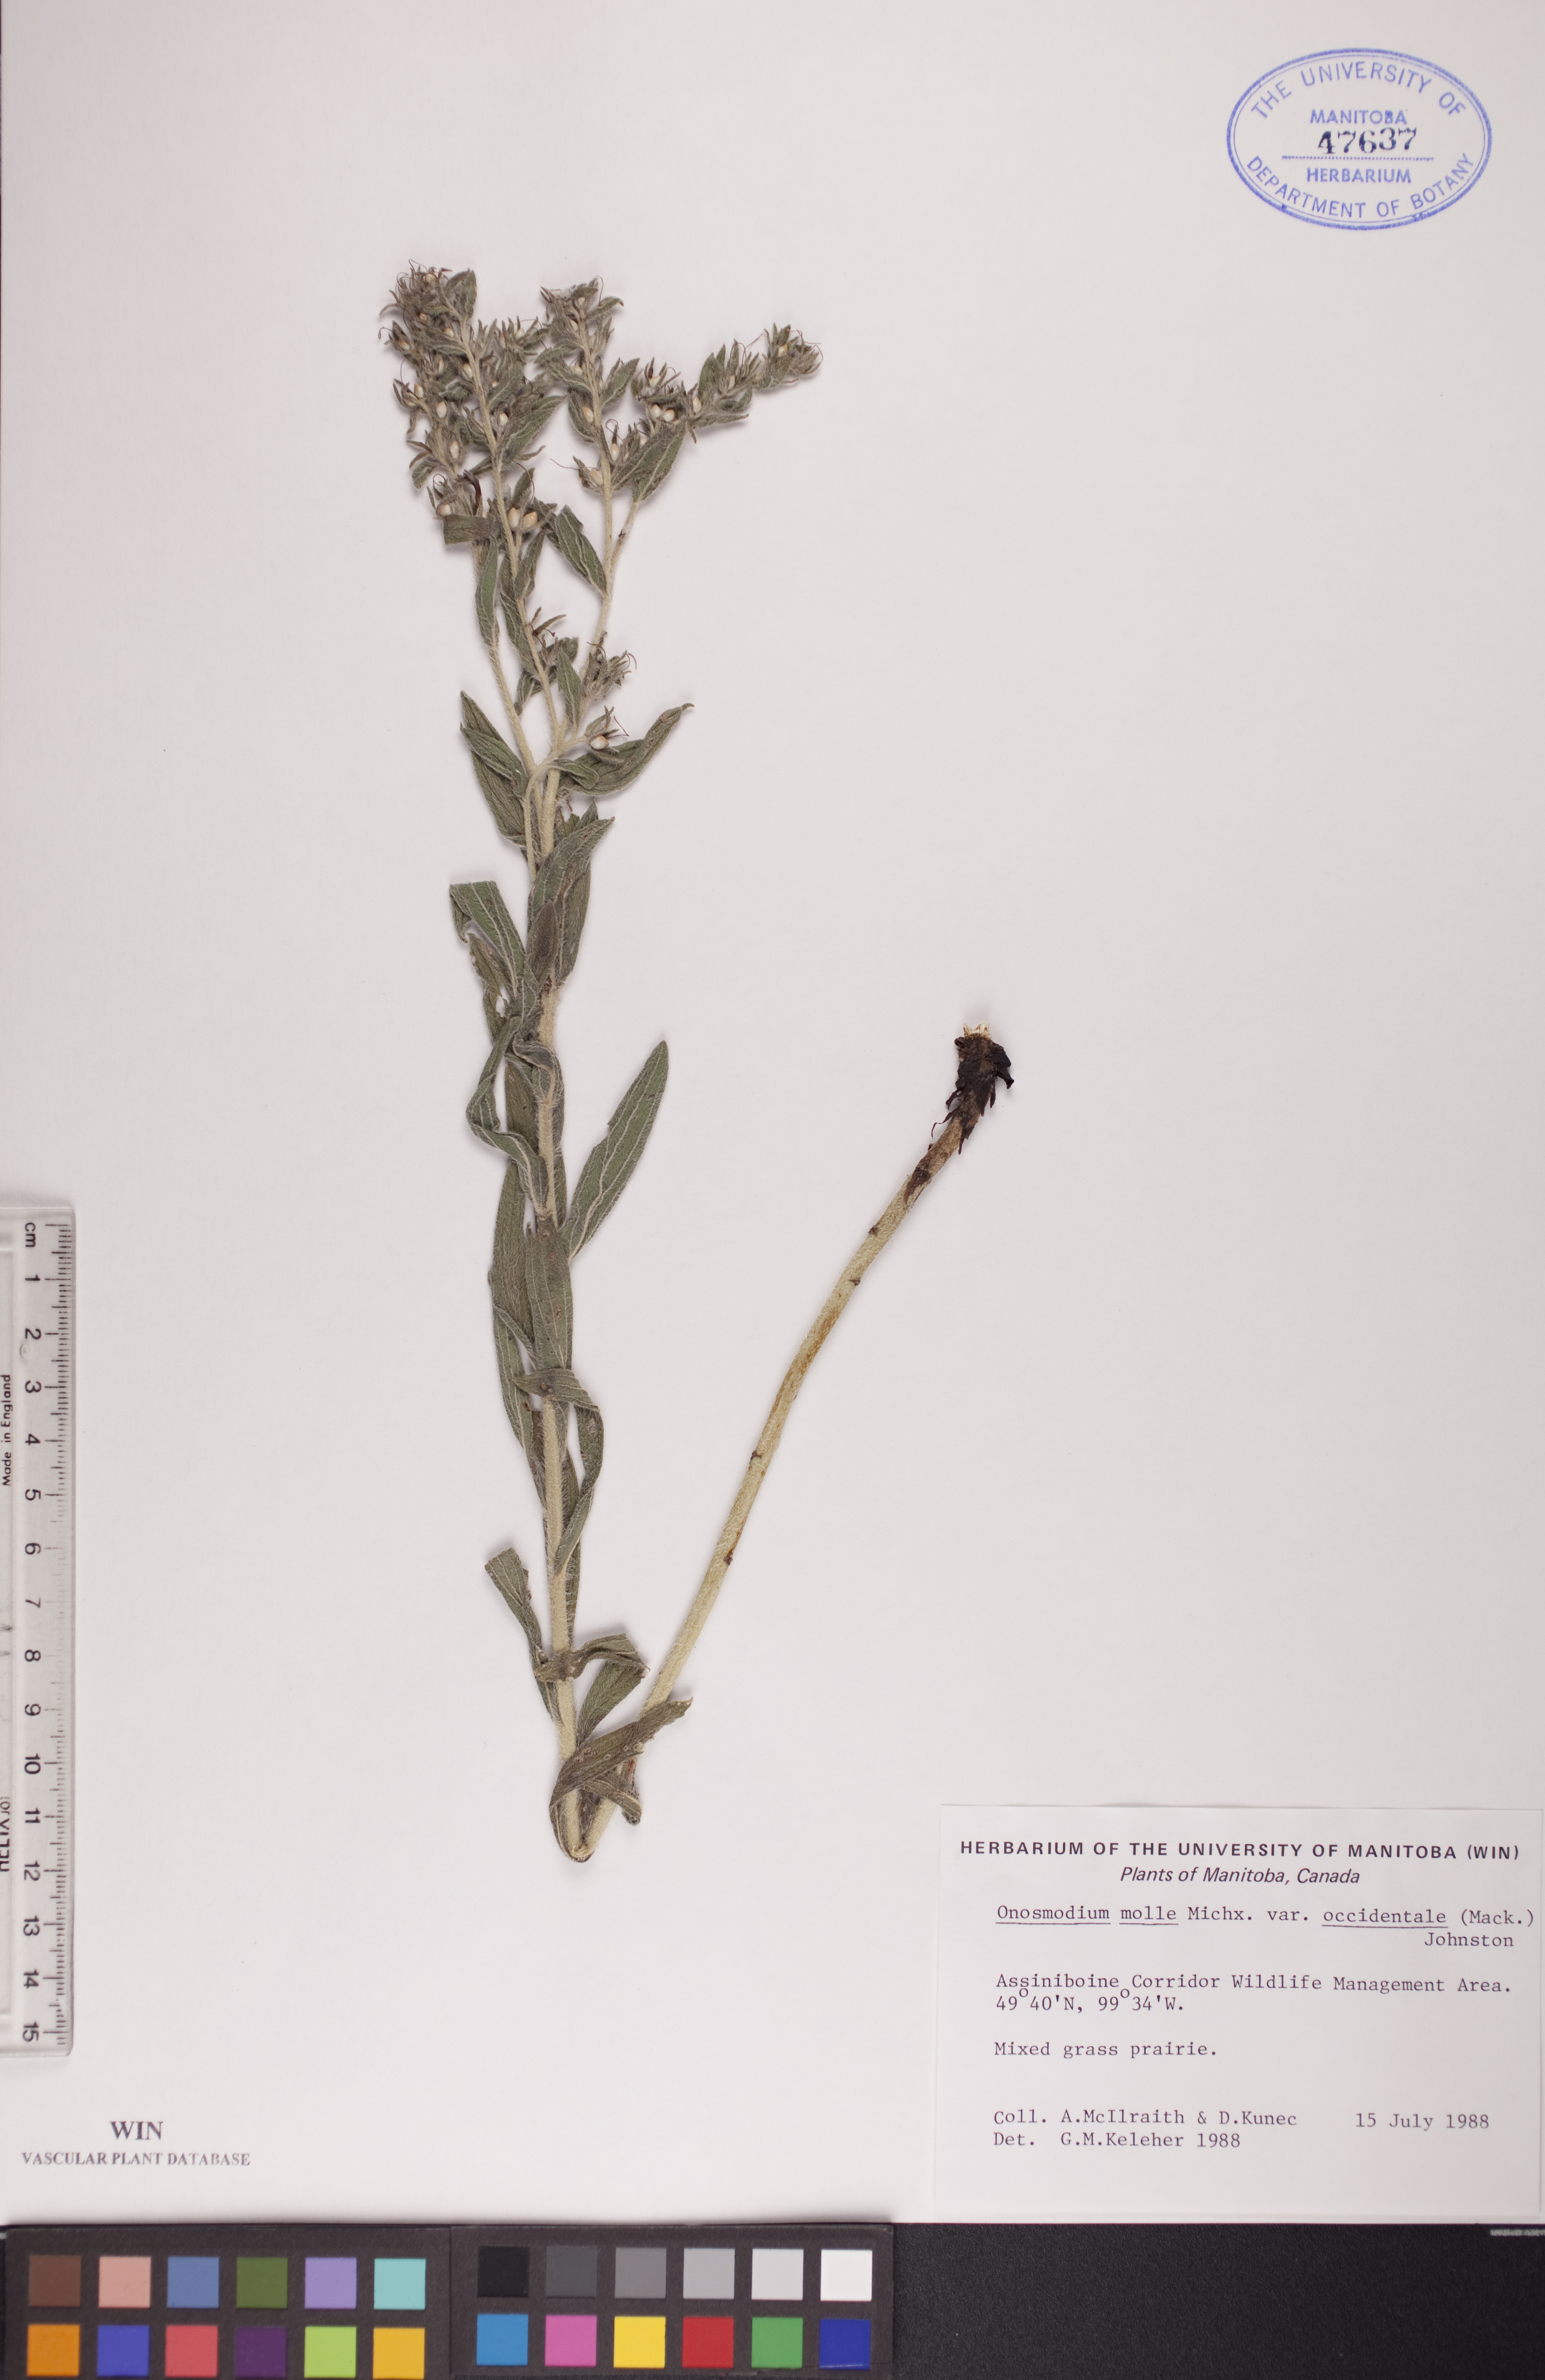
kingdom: Plantae
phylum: Tracheophyta
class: Magnoliopsida
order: Boraginales
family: Boraginaceae
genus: Lithospermum
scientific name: Lithospermum occidentale
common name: Western false gromwell
